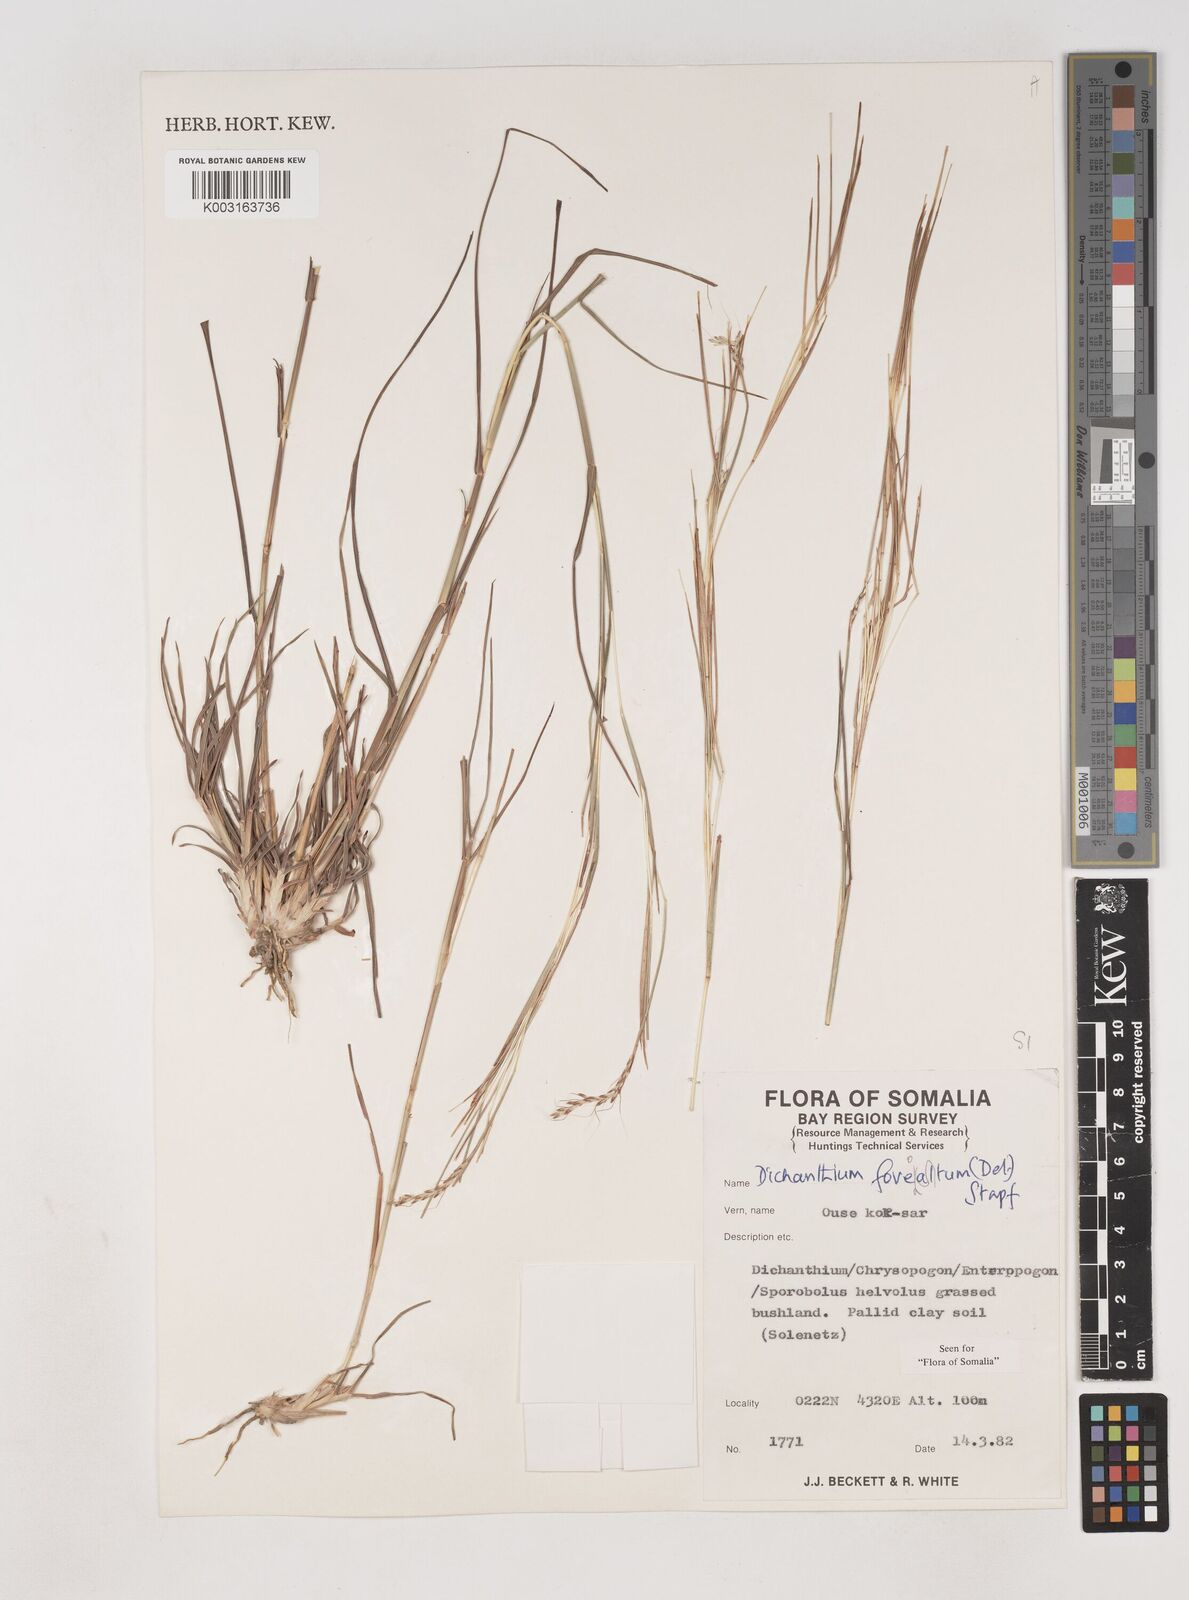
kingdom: Plantae
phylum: Tracheophyta
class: Liliopsida
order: Poales
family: Poaceae
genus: Dichanthium
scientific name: Dichanthium foveolatum
